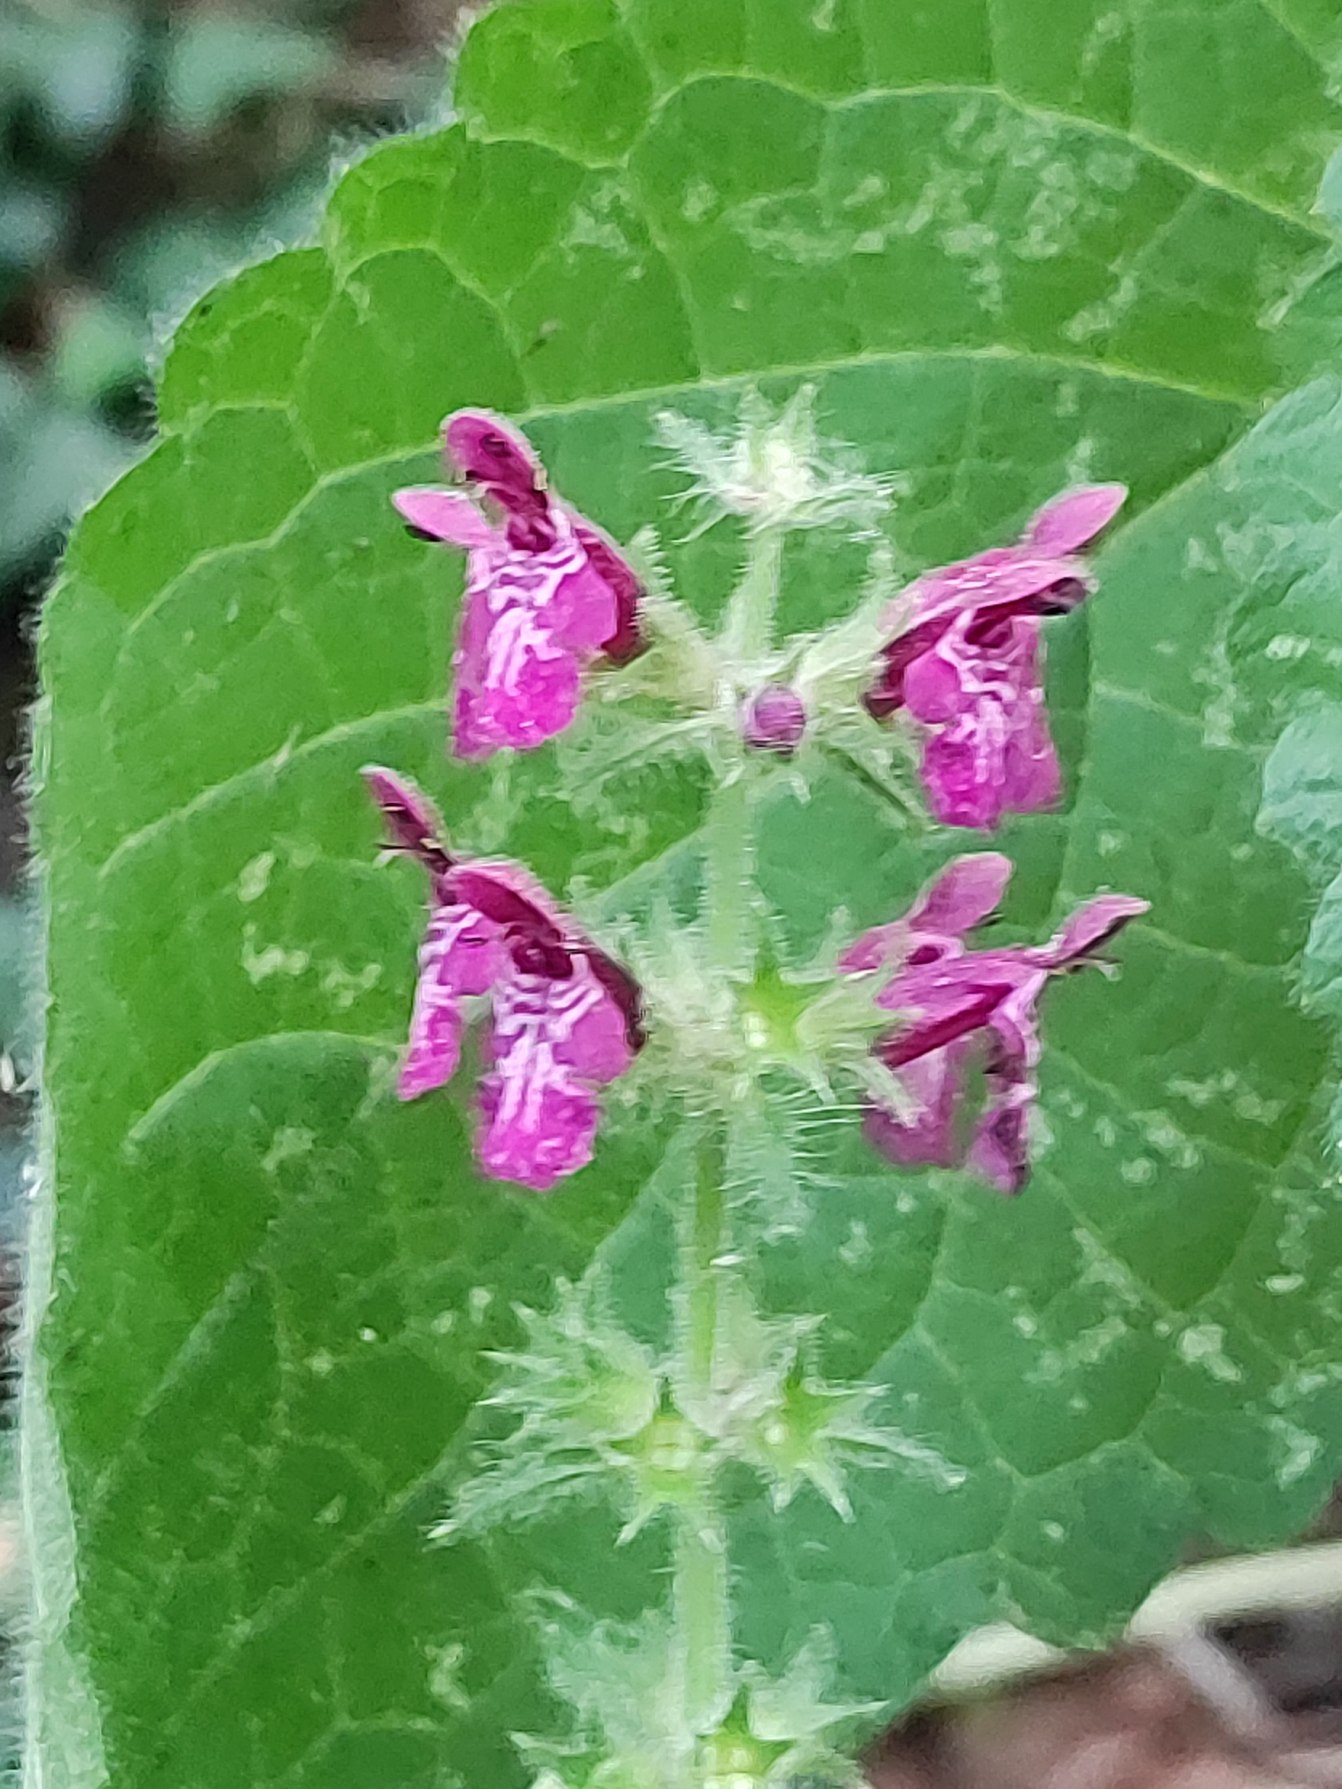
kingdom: Plantae
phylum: Tracheophyta
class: Magnoliopsida
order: Lamiales
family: Lamiaceae
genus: Stachys
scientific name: Stachys sylvatica
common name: Skov-galtetand
